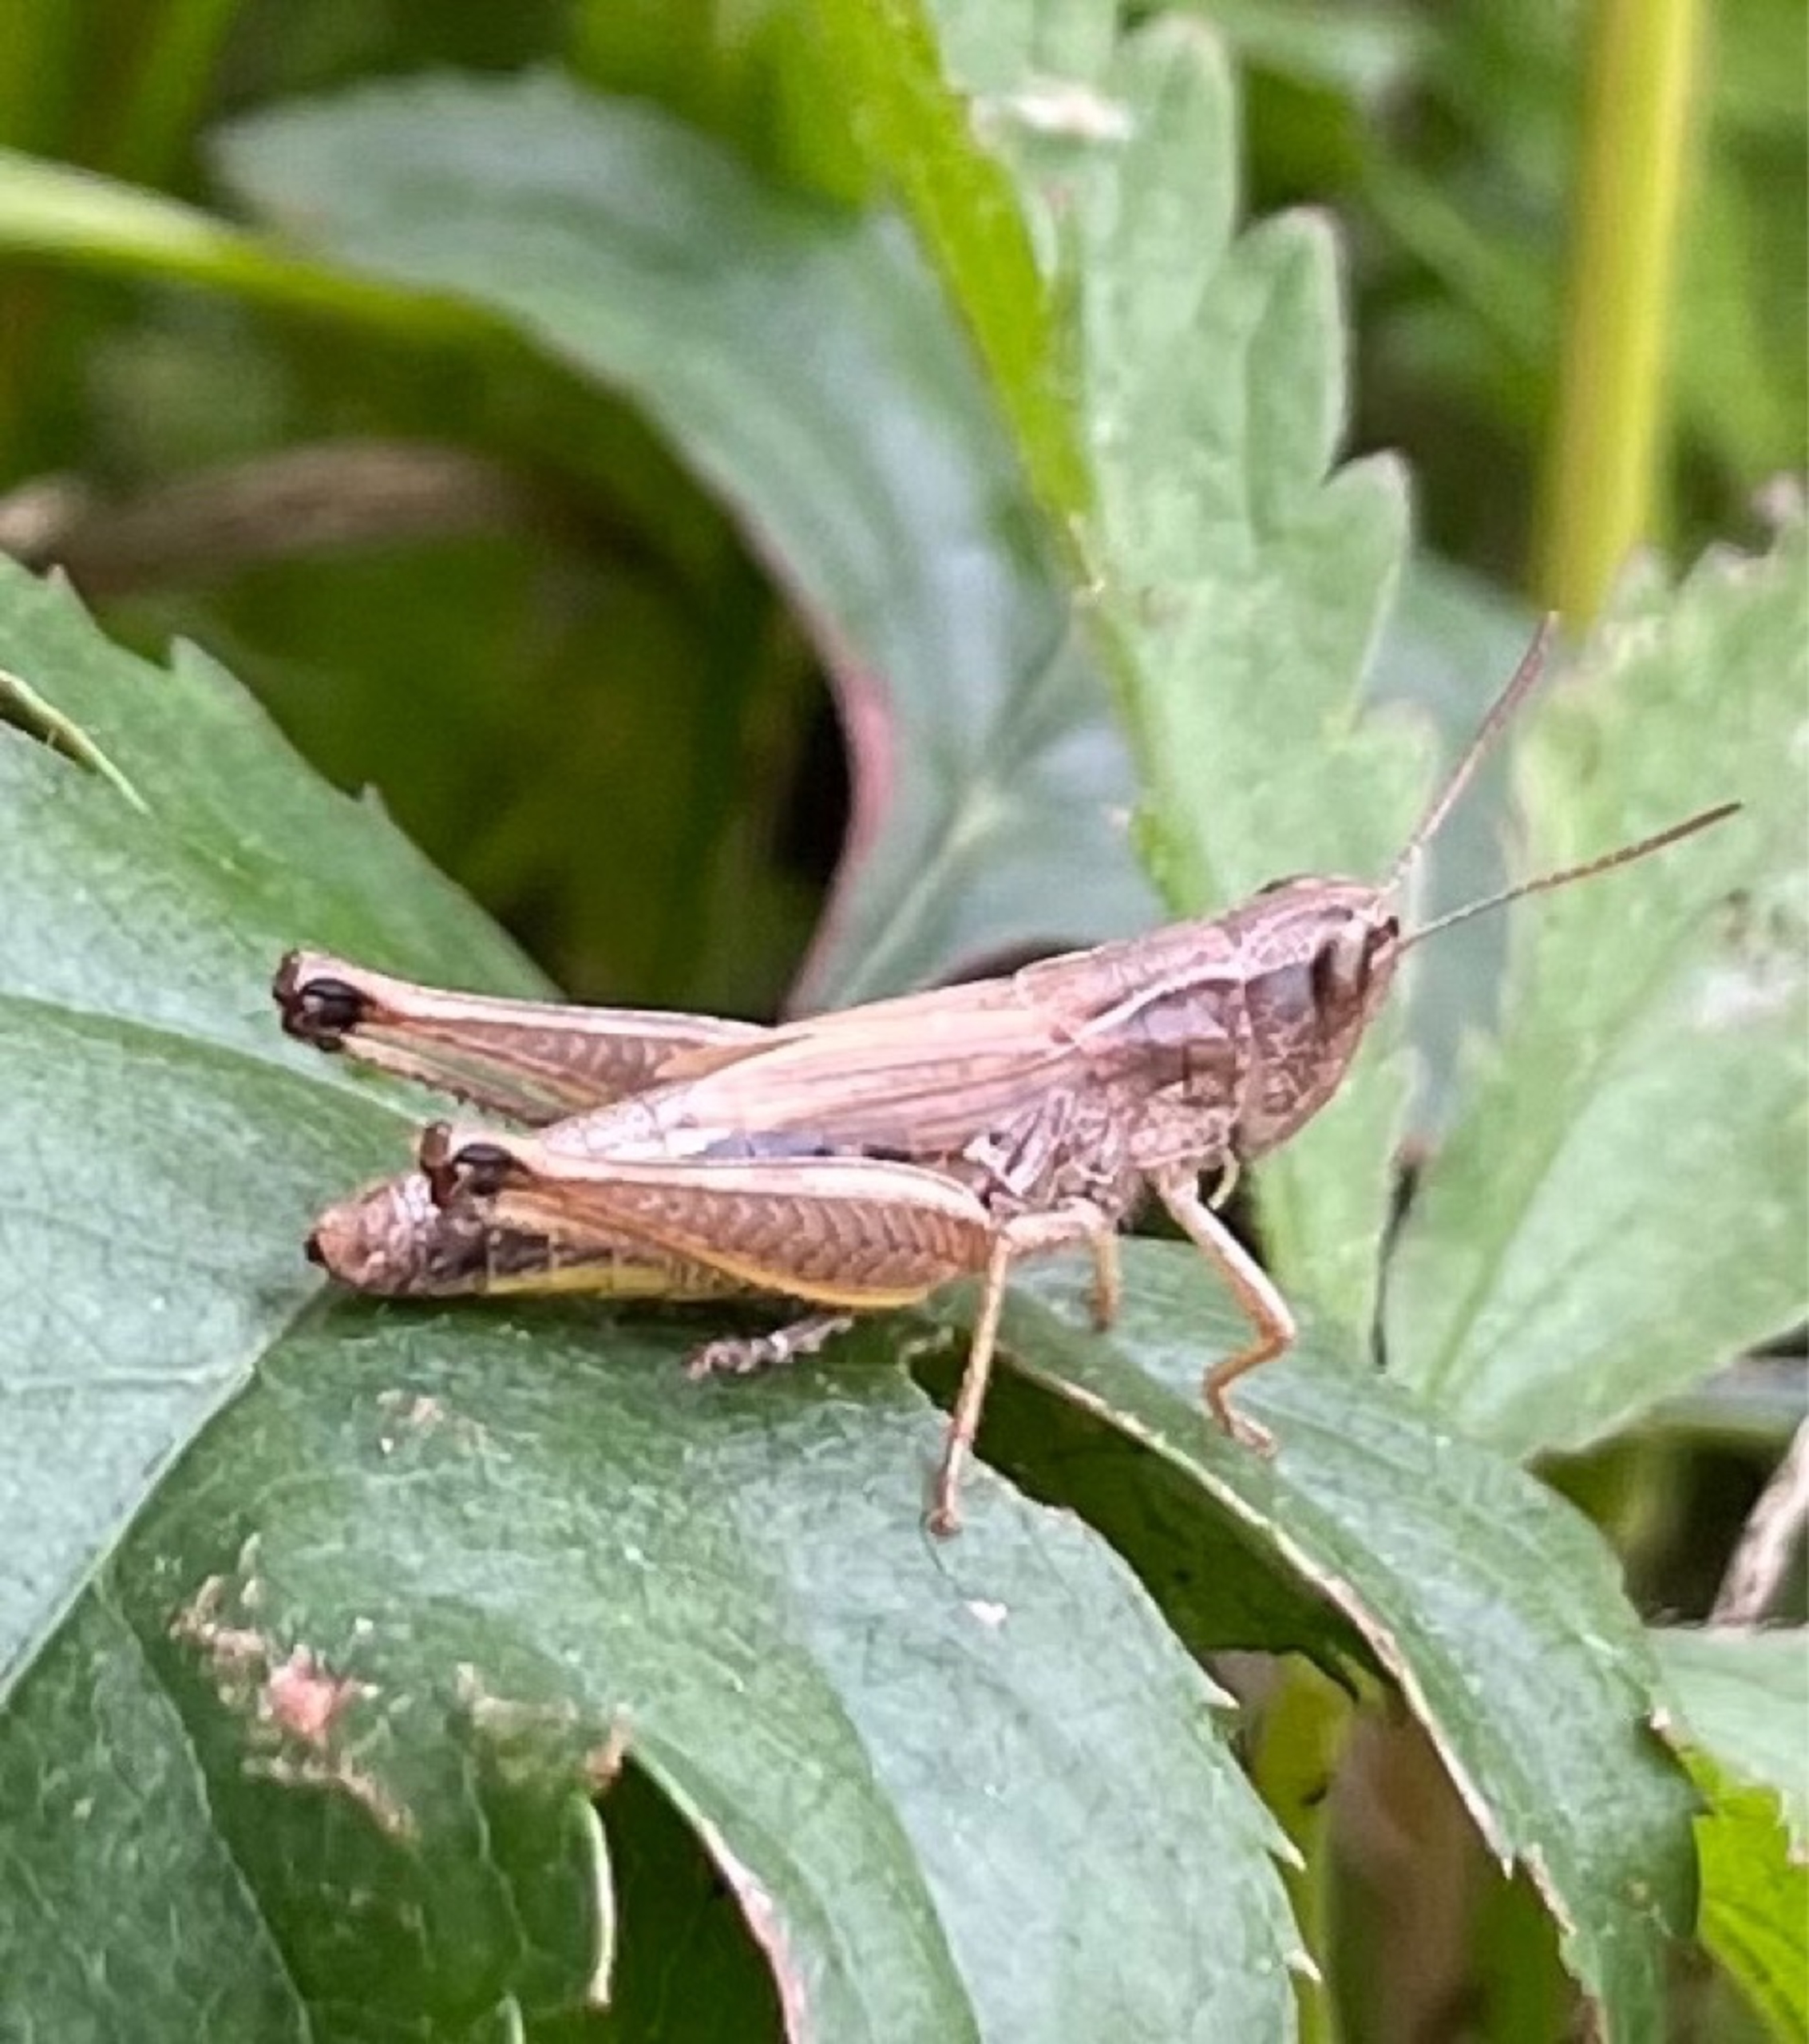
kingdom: Animalia
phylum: Arthropoda
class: Insecta
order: Orthoptera
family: Acrididae
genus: Pseudochorthippus
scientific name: Pseudochorthippus parallelus
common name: Enggræshoppe
